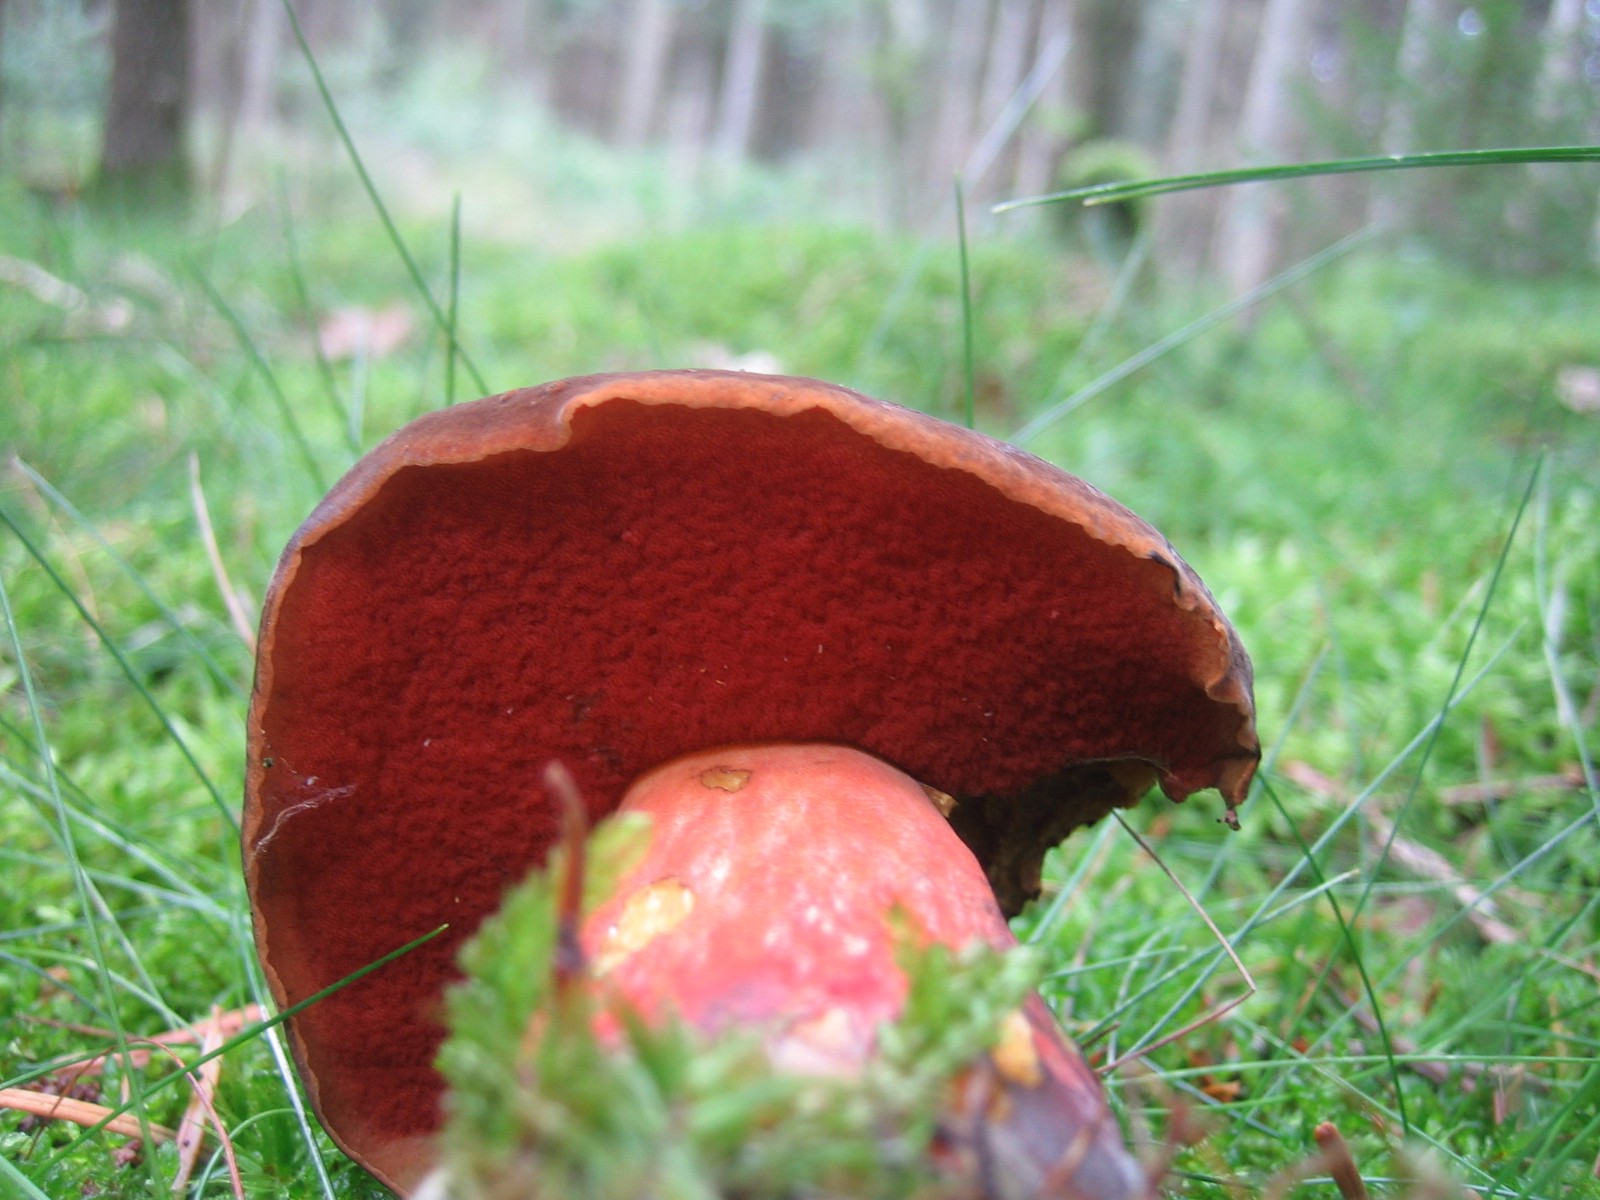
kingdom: Fungi
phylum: Basidiomycota
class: Agaricomycetes
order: Boletales
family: Boletaceae
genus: Neoboletus
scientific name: Neoboletus erythropus
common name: punktstokket indigorørhat
